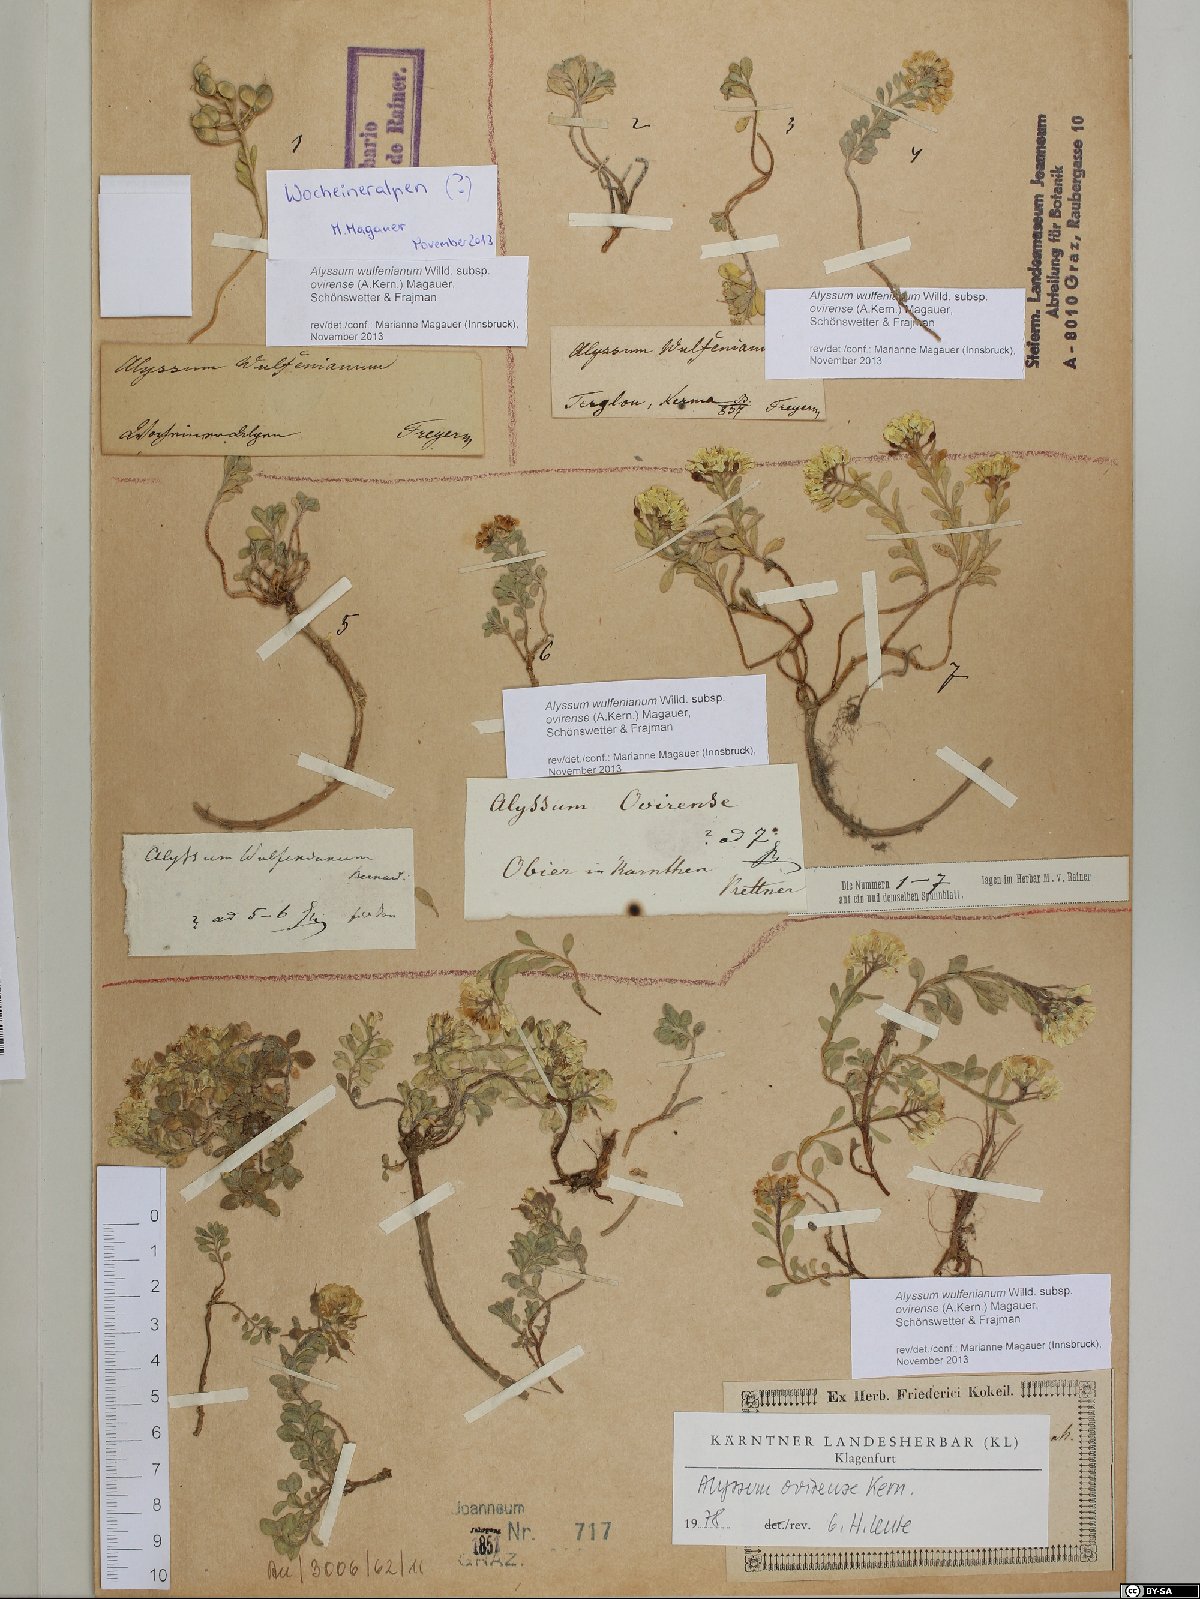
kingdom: Plantae
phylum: Tracheophyta
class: Magnoliopsida
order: Brassicales
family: Brassicaceae
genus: Alyssum
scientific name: Alyssum wulfenianum
